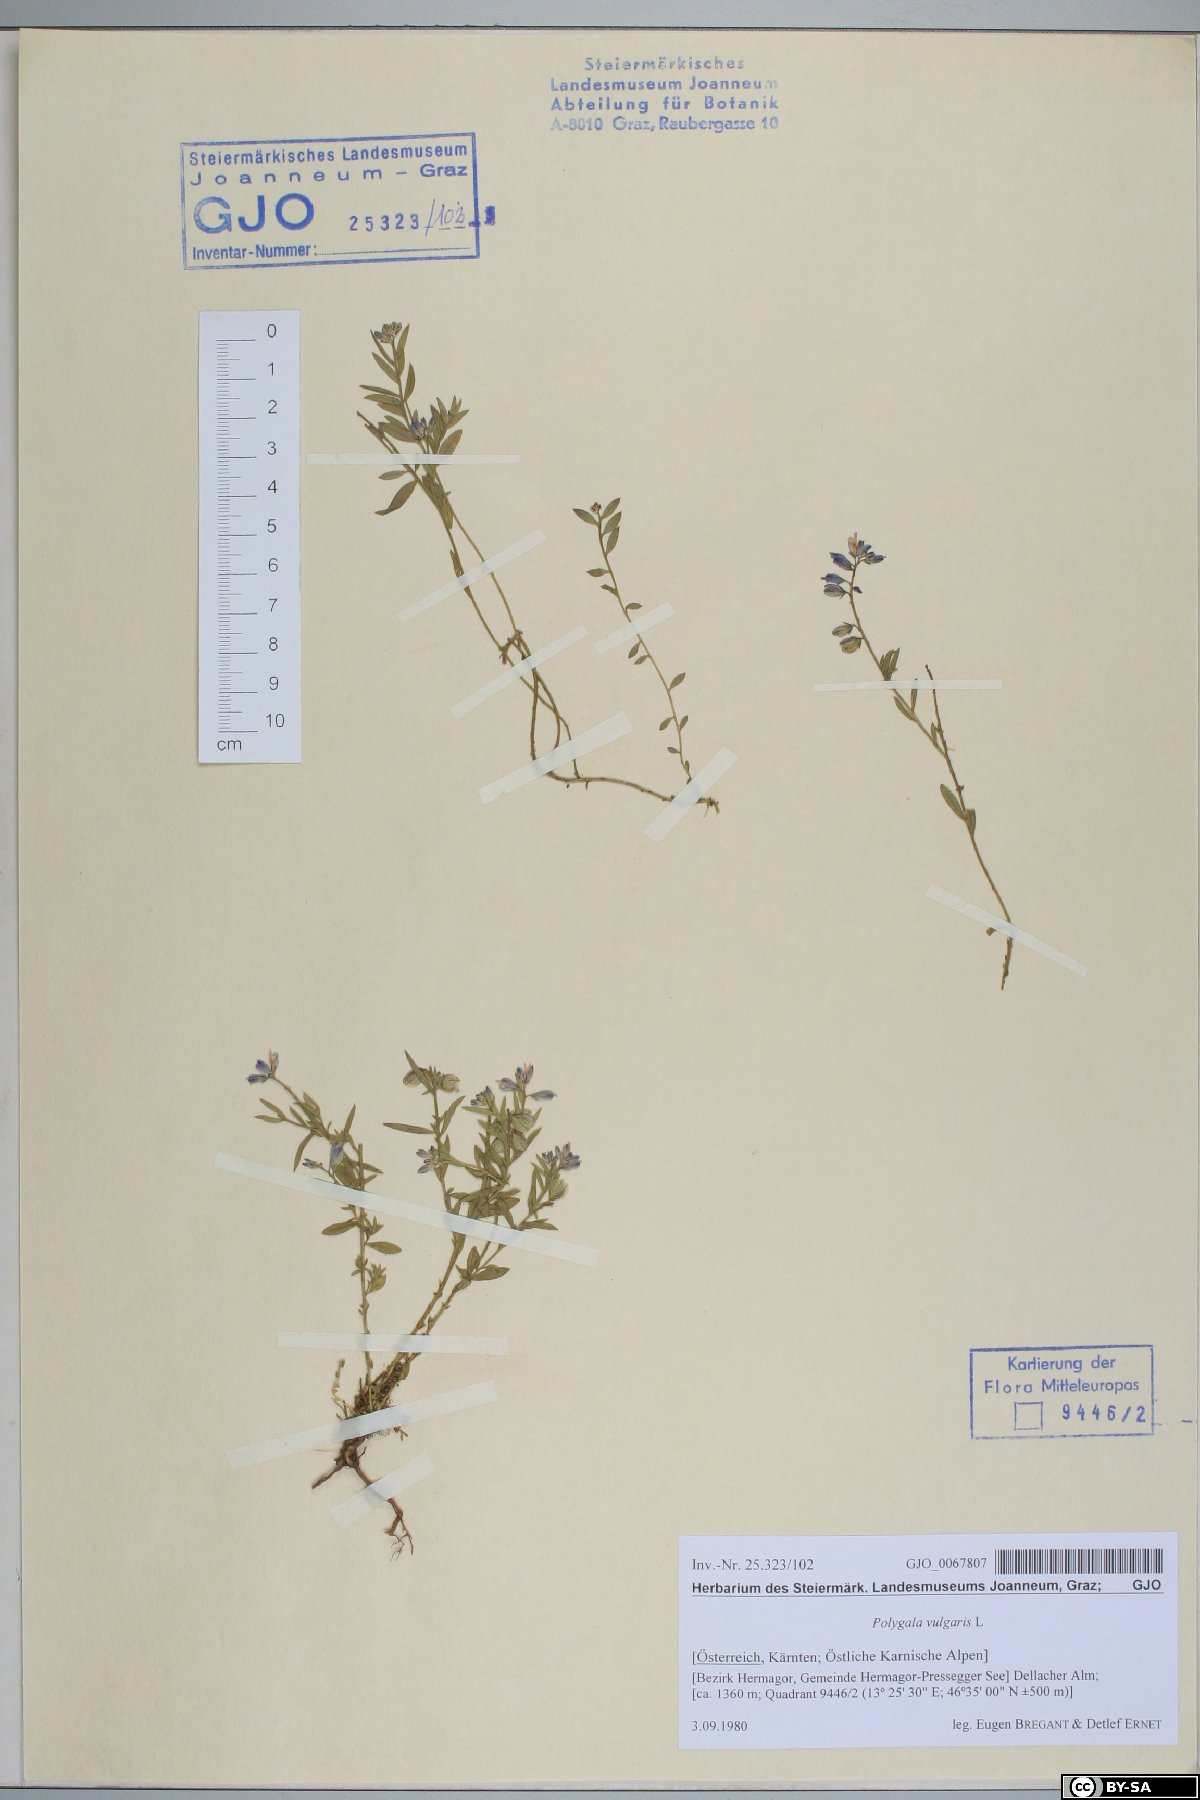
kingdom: Plantae
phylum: Tracheophyta
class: Magnoliopsida
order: Fabales
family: Polygalaceae
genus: Polygala
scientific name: Polygala vulgaris
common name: Common milkwort
